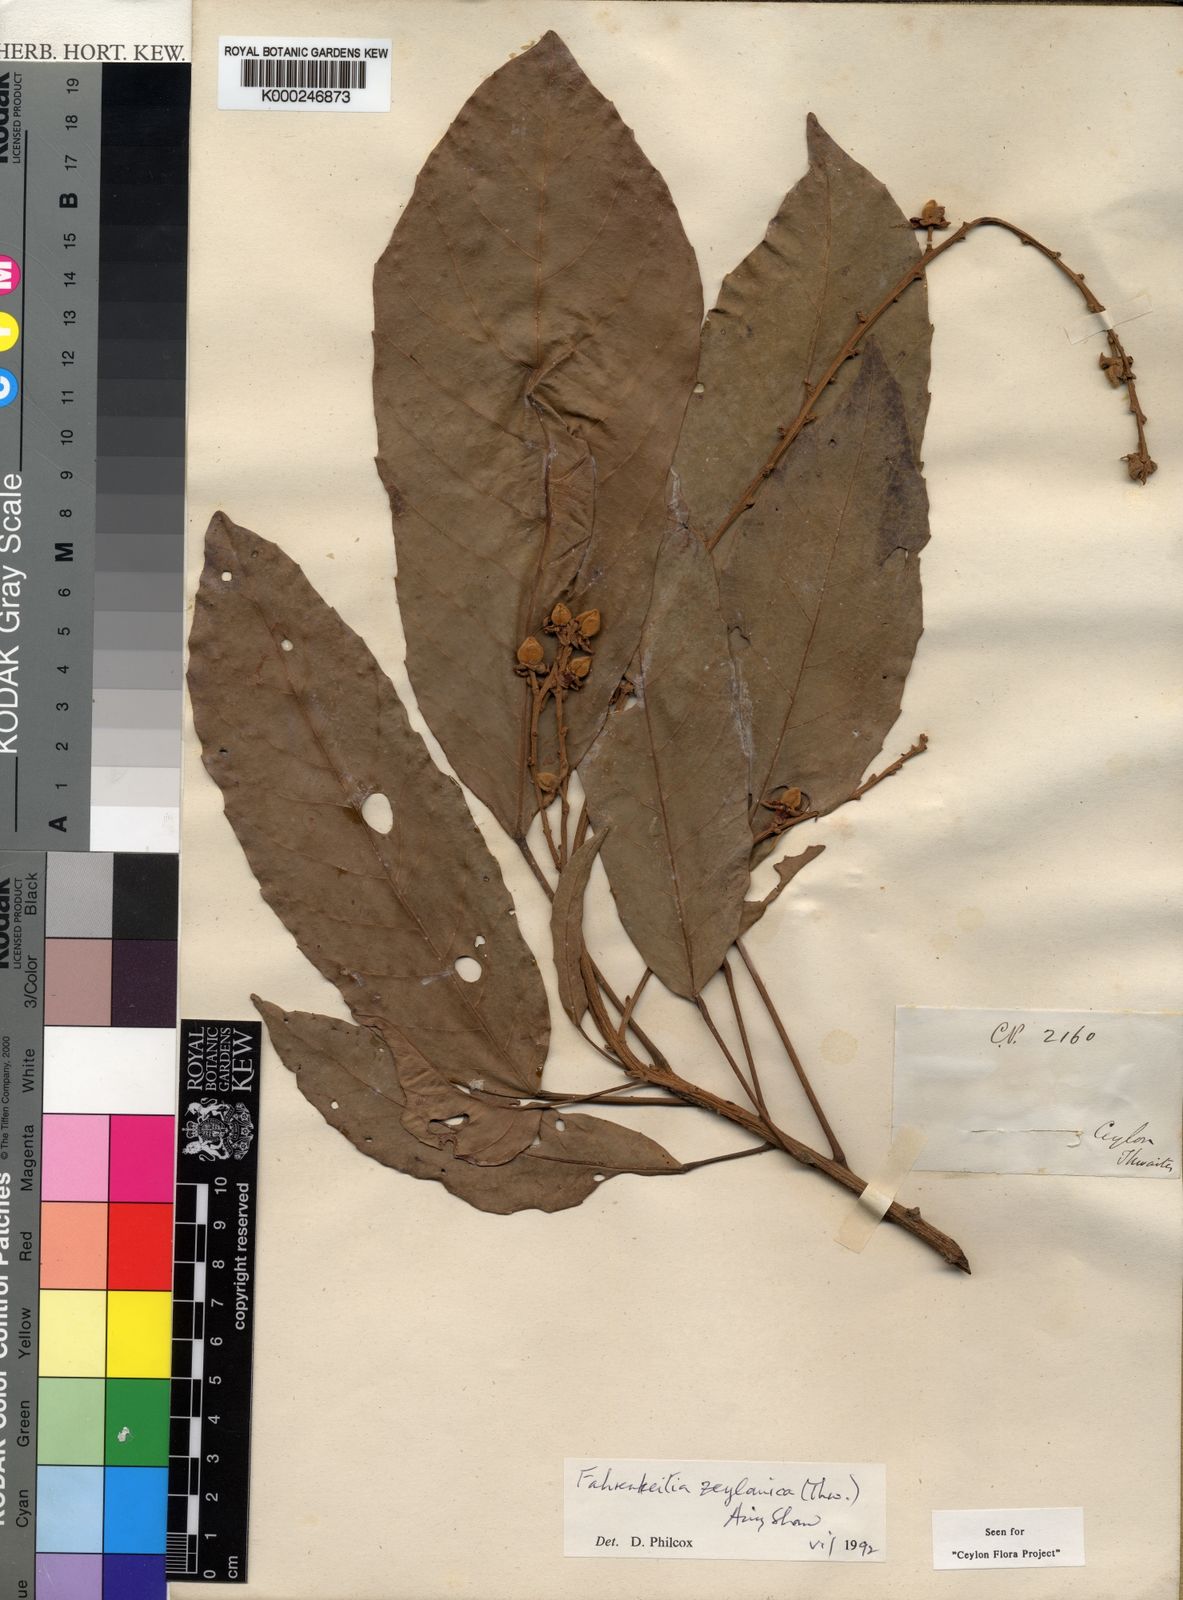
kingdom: Plantae
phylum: Tracheophyta
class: Magnoliopsida
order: Malpighiales
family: Euphorbiaceae
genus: Paracroton
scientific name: Paracroton
